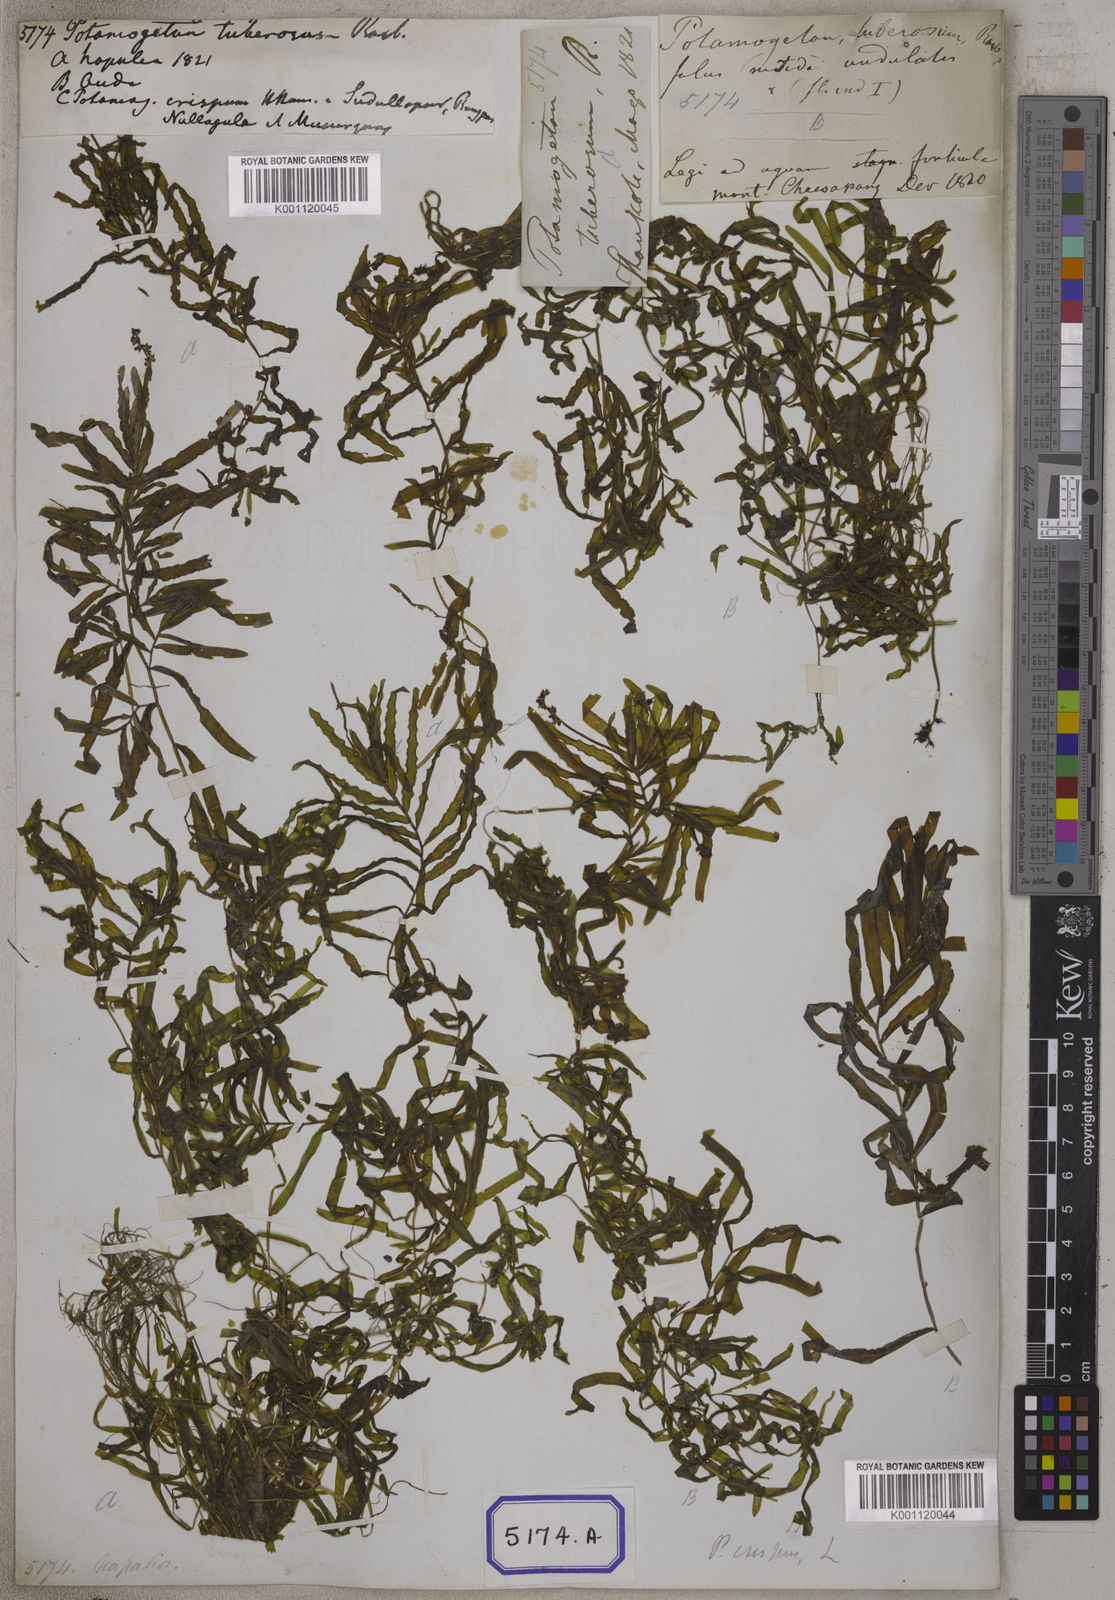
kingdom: Plantae
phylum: Tracheophyta
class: Liliopsida
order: Alismatales
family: Potamogetonaceae
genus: Potamogeton
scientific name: Potamogeton crispus
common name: Curled pondweed
